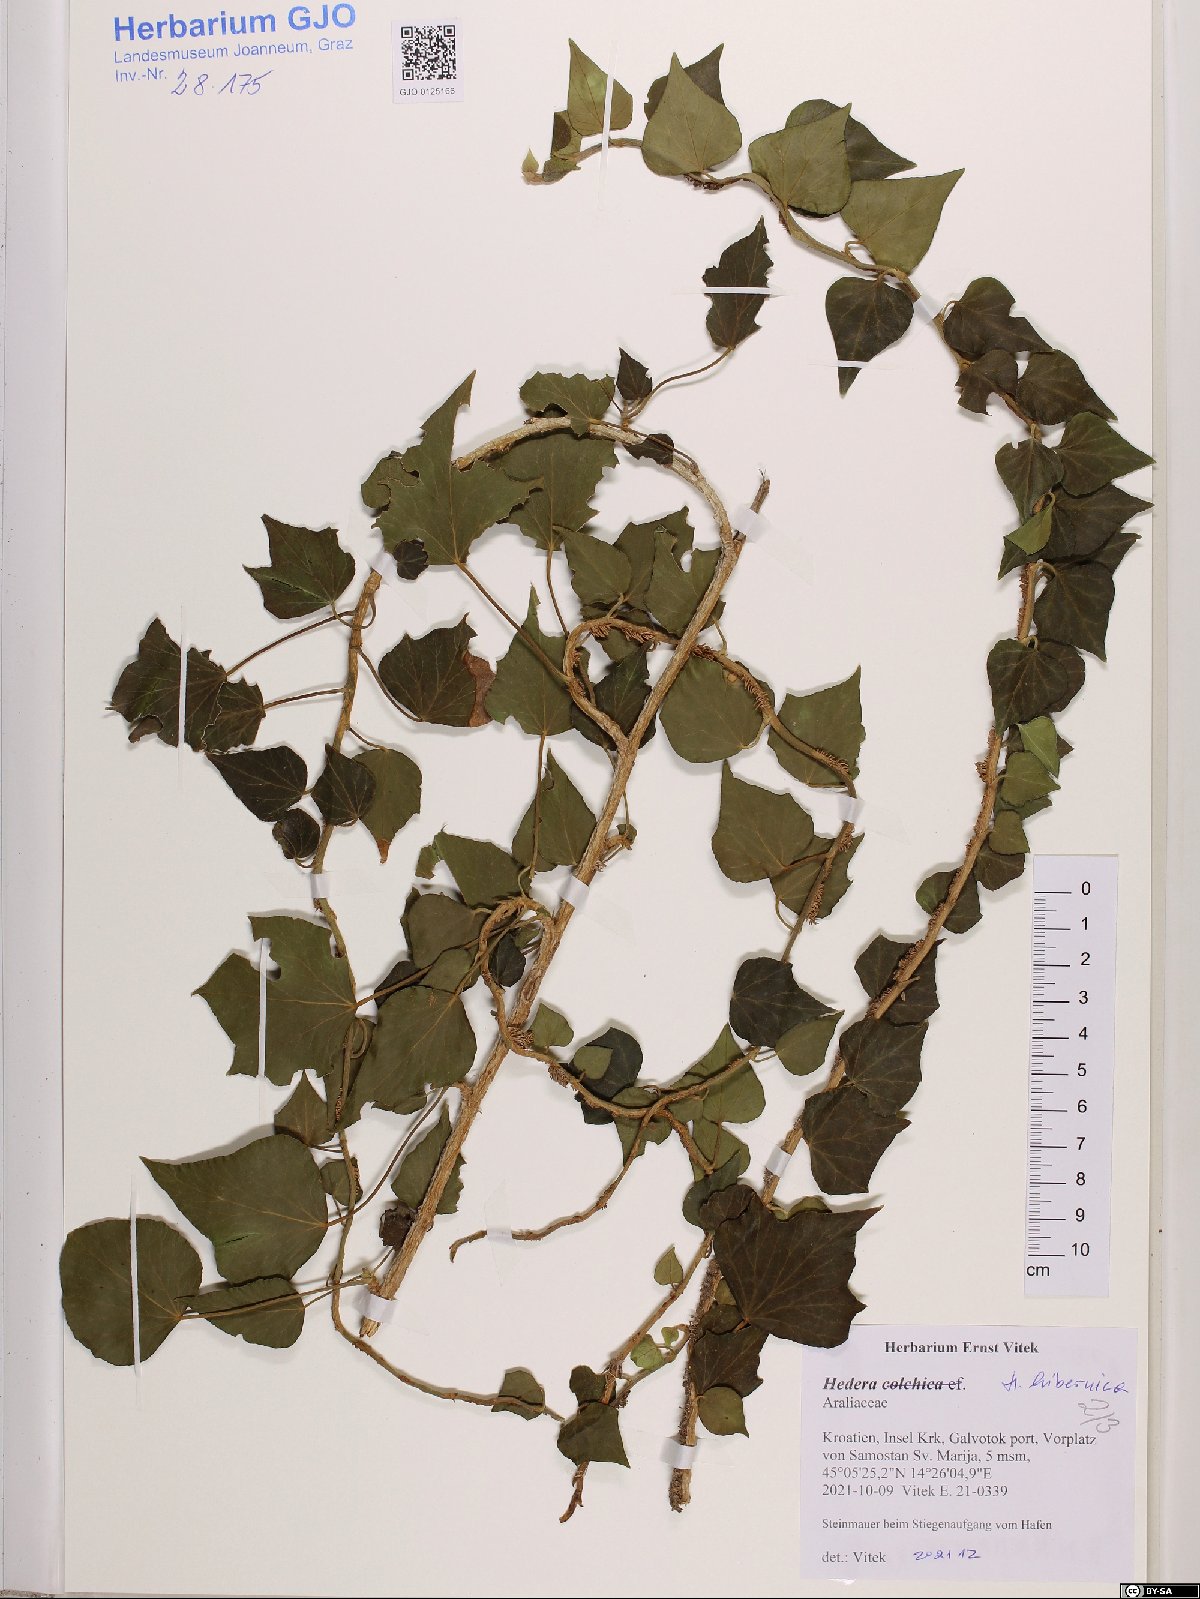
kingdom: Plantae
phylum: Tracheophyta
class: Magnoliopsida
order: Apiales
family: Araliaceae
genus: Hedera
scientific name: Hedera hibernica
